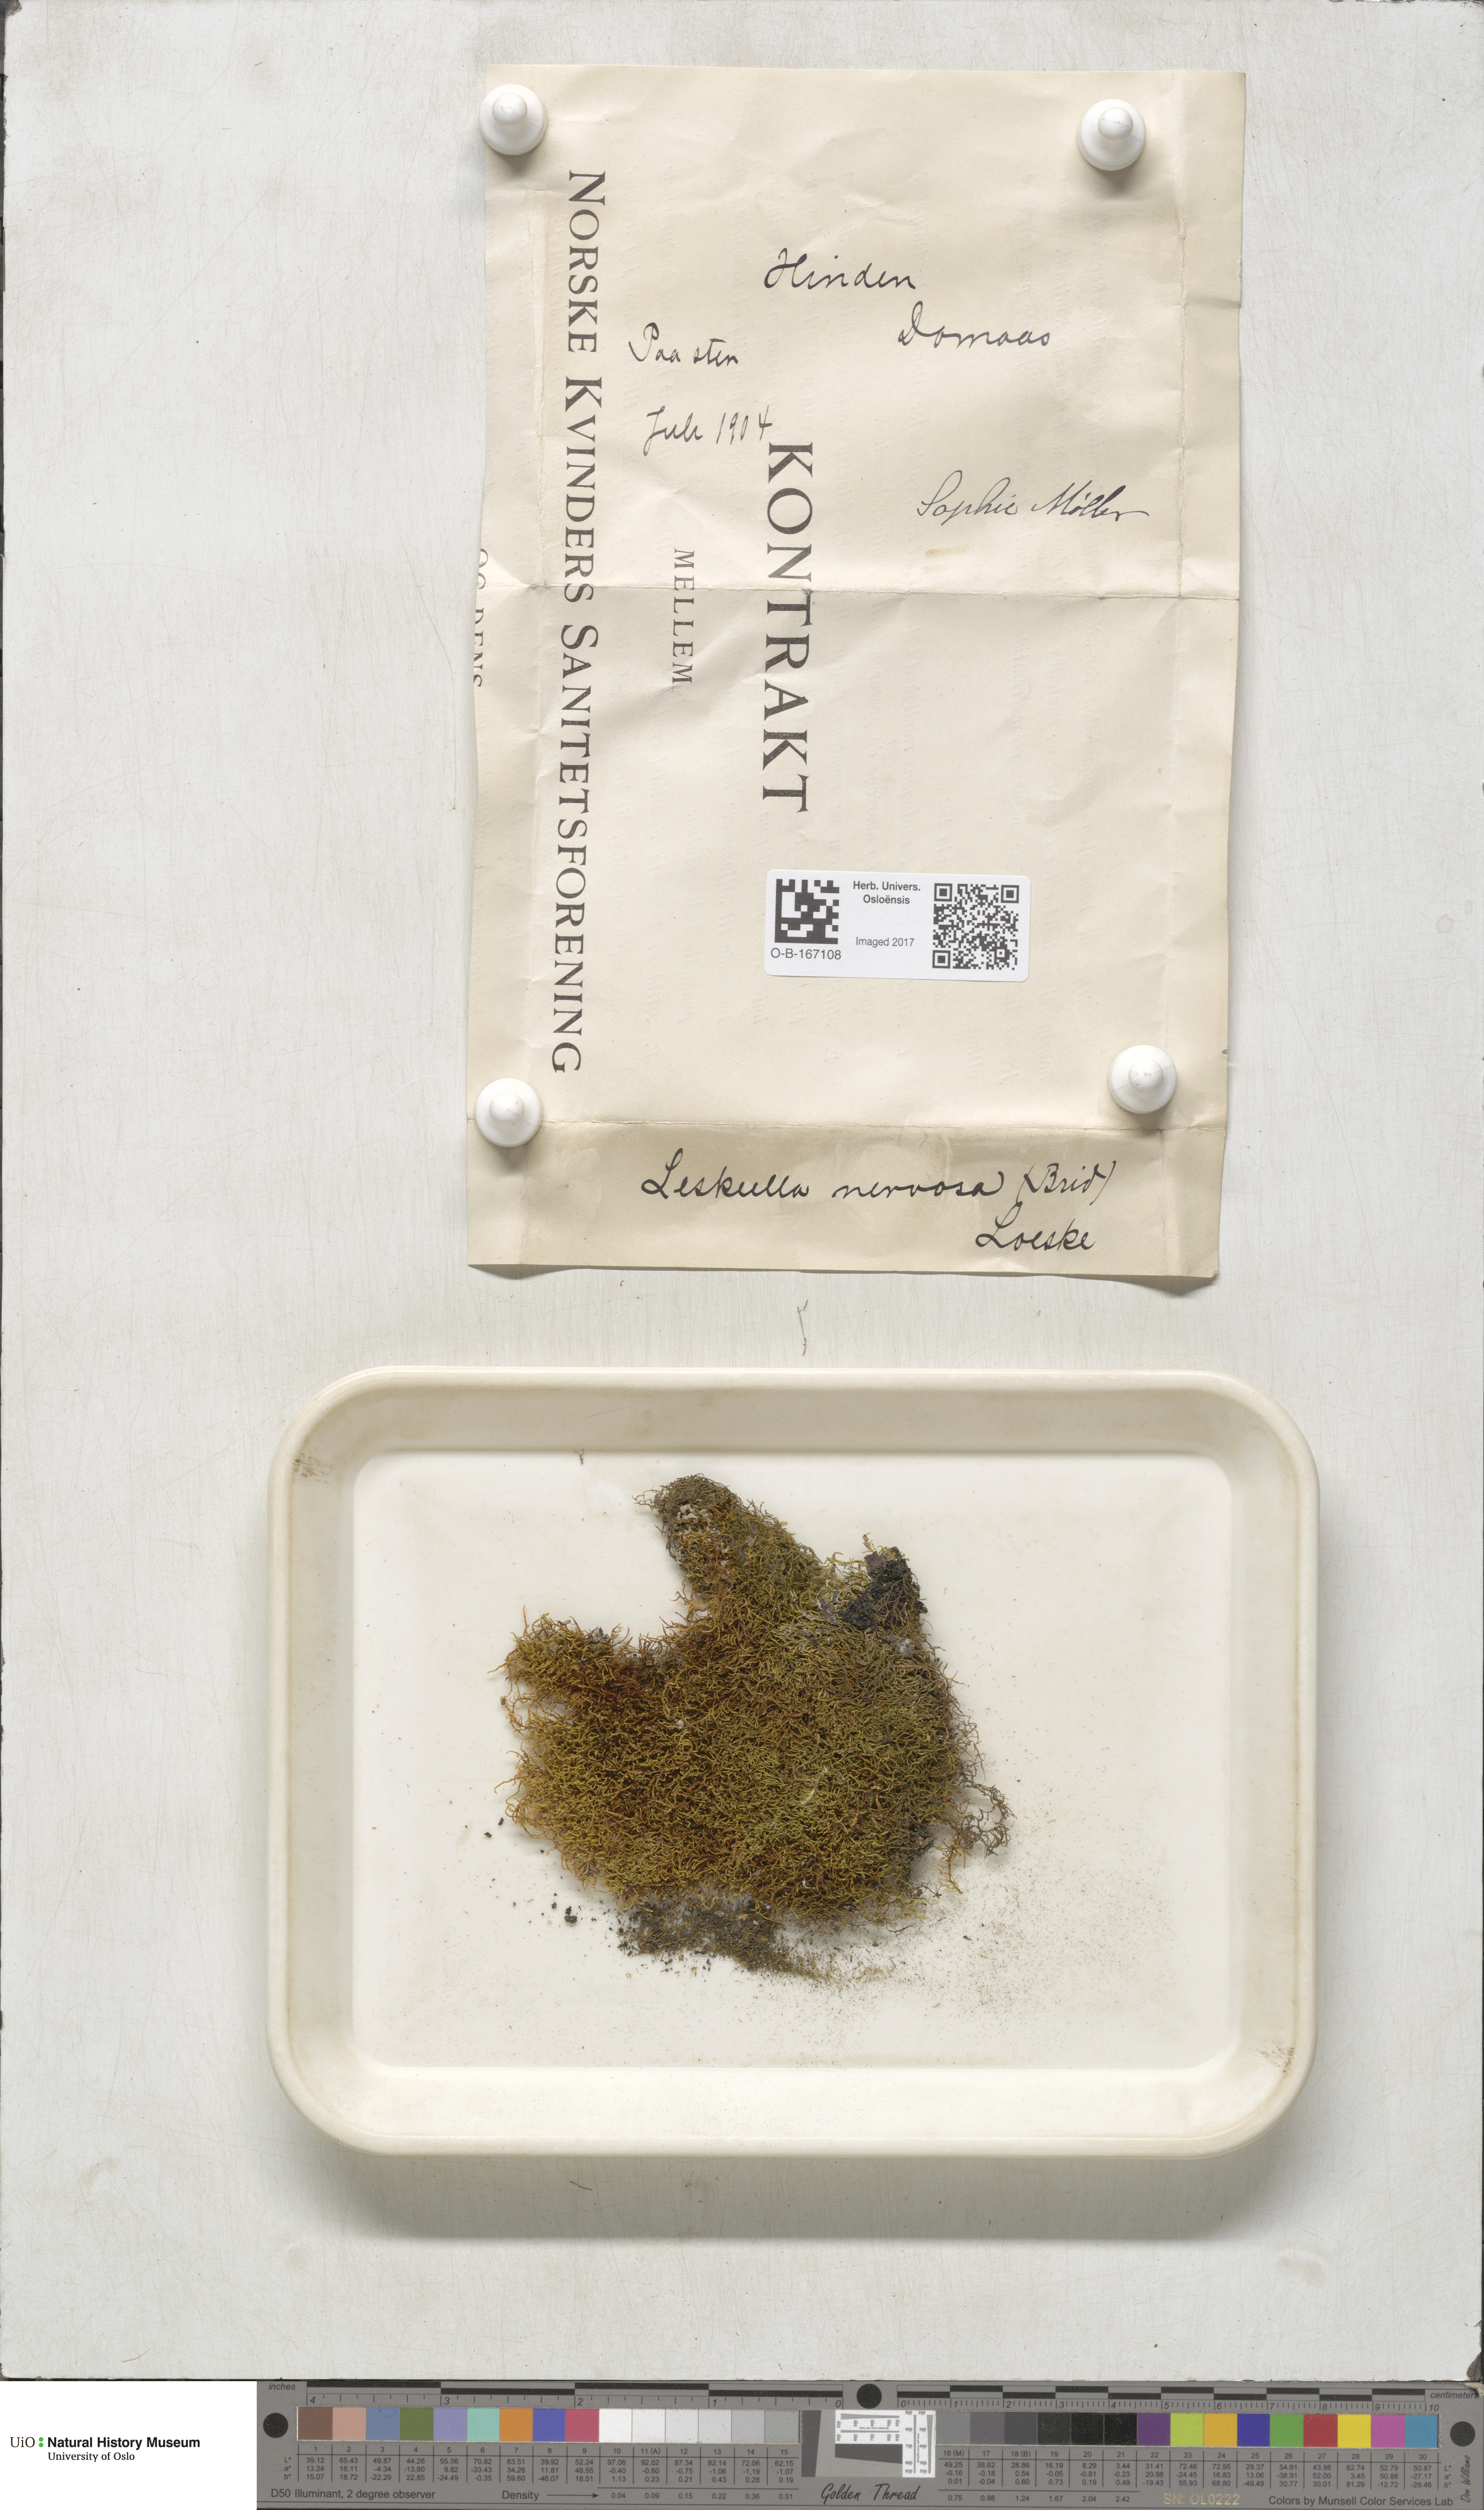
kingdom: Plantae
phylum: Bryophyta
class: Bryopsida
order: Hypnales
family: Pseudoleskeellaceae
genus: Pseudoleskeella
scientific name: Pseudoleskeella nervosa
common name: Nerved leske's moss
